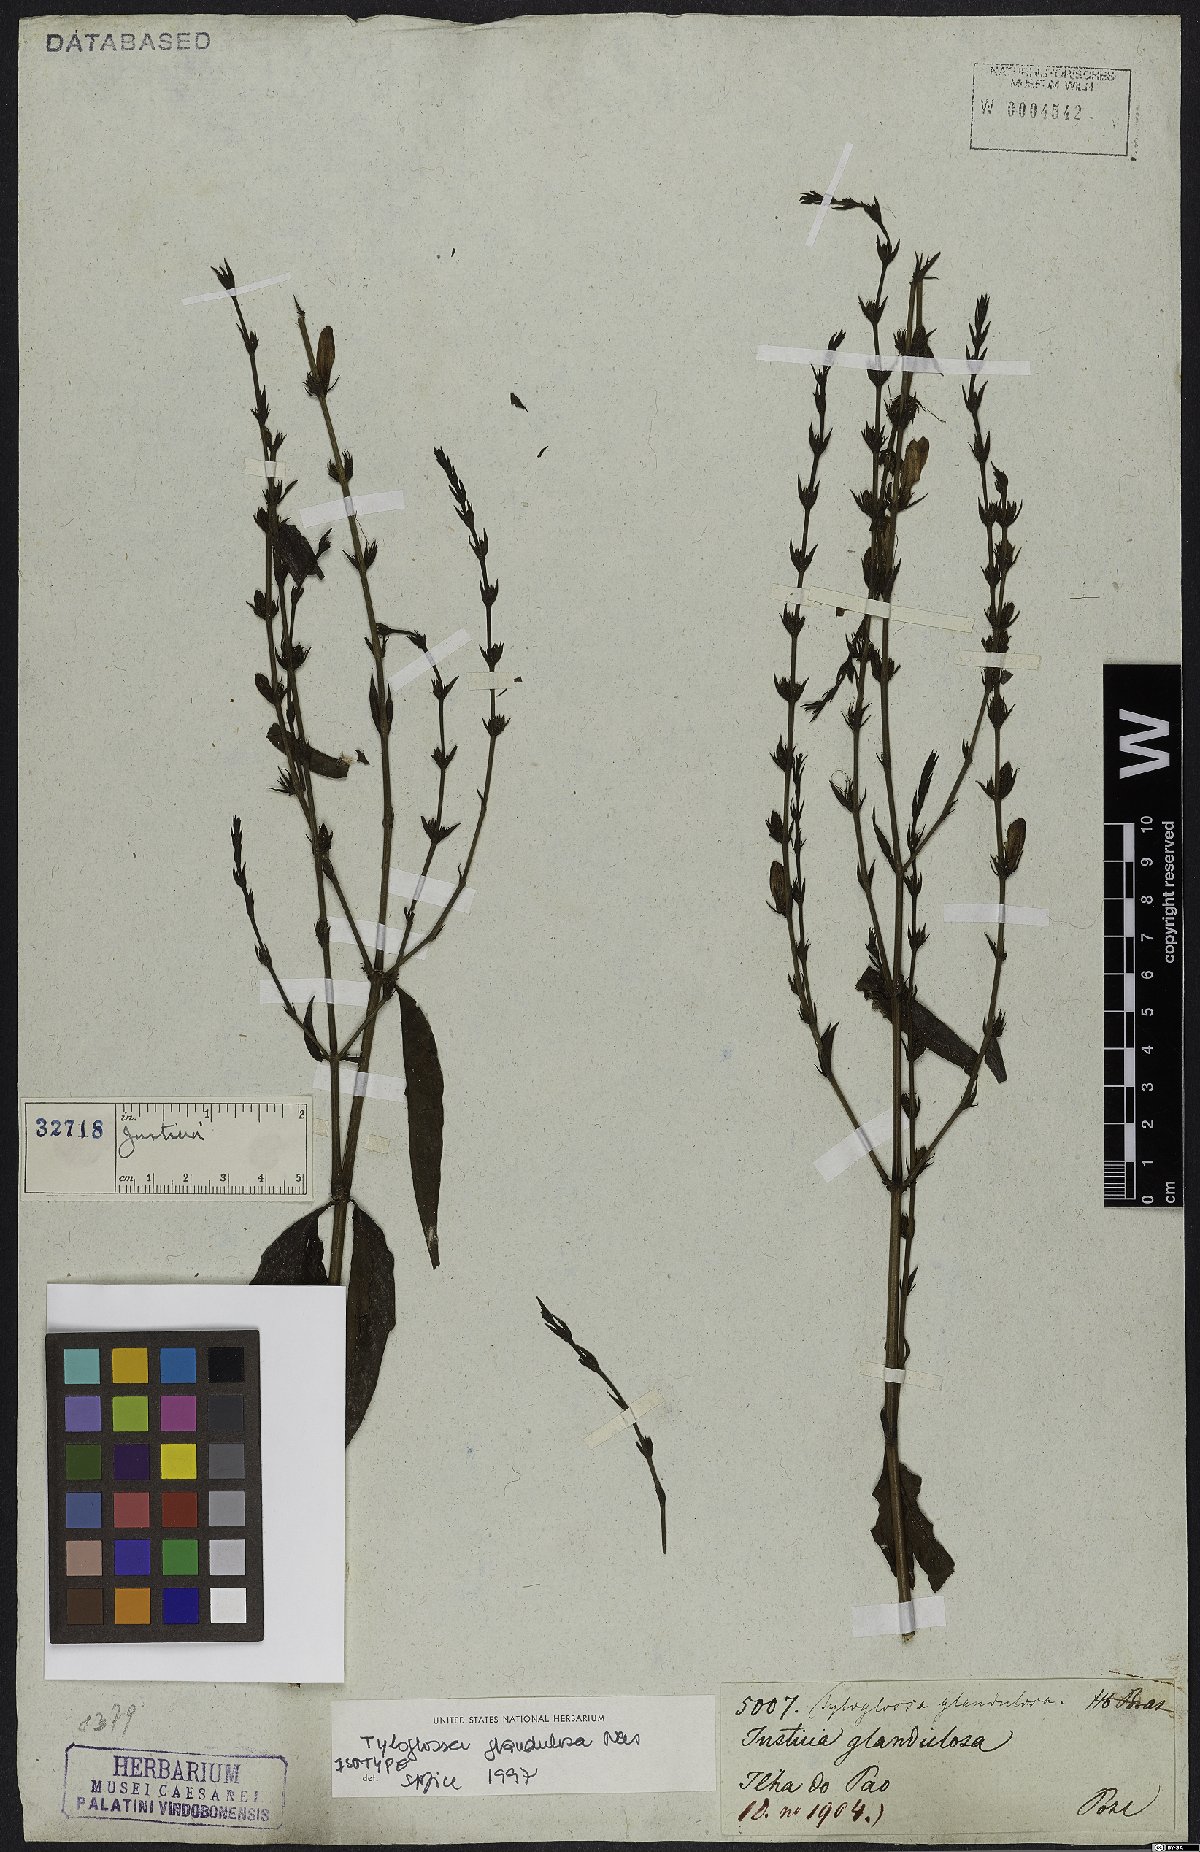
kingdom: Plantae
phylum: Tracheophyta
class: Magnoliopsida
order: Lamiales
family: Acanthaceae
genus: Justicia
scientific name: Justicia goianiensis
